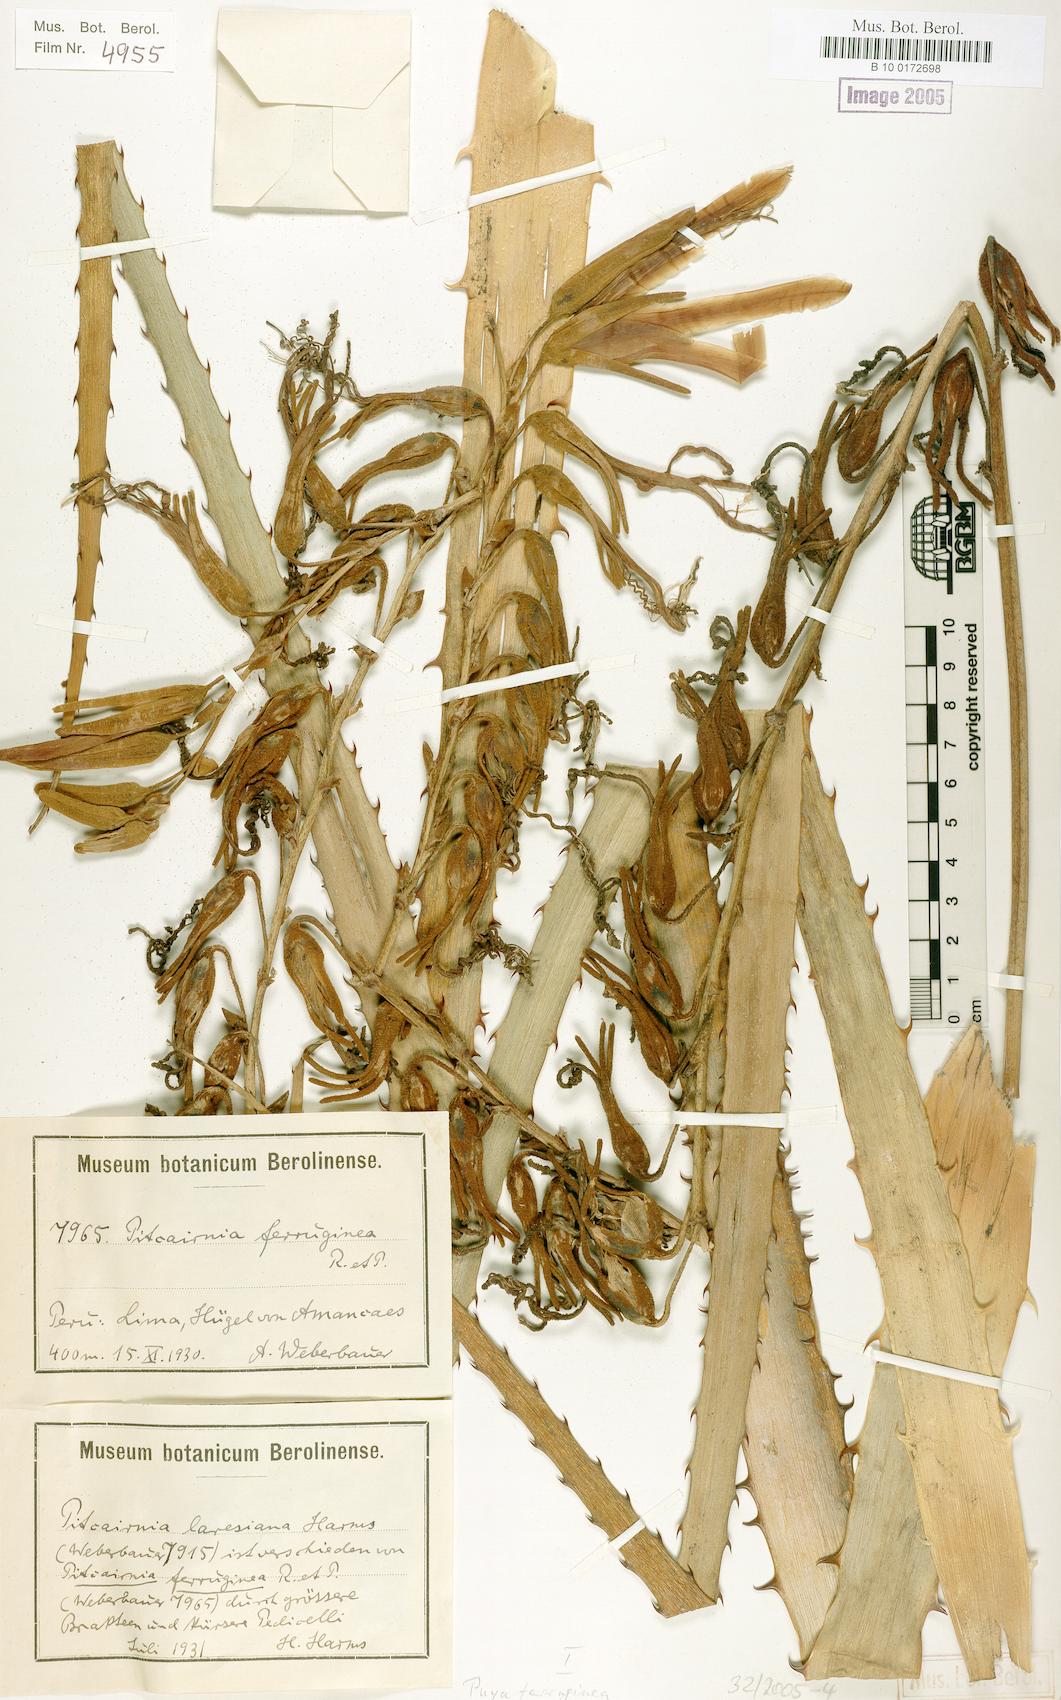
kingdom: Plantae
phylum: Tracheophyta
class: Liliopsida
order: Poales
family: Bromeliaceae
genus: Puya
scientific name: Puya ferruginea
